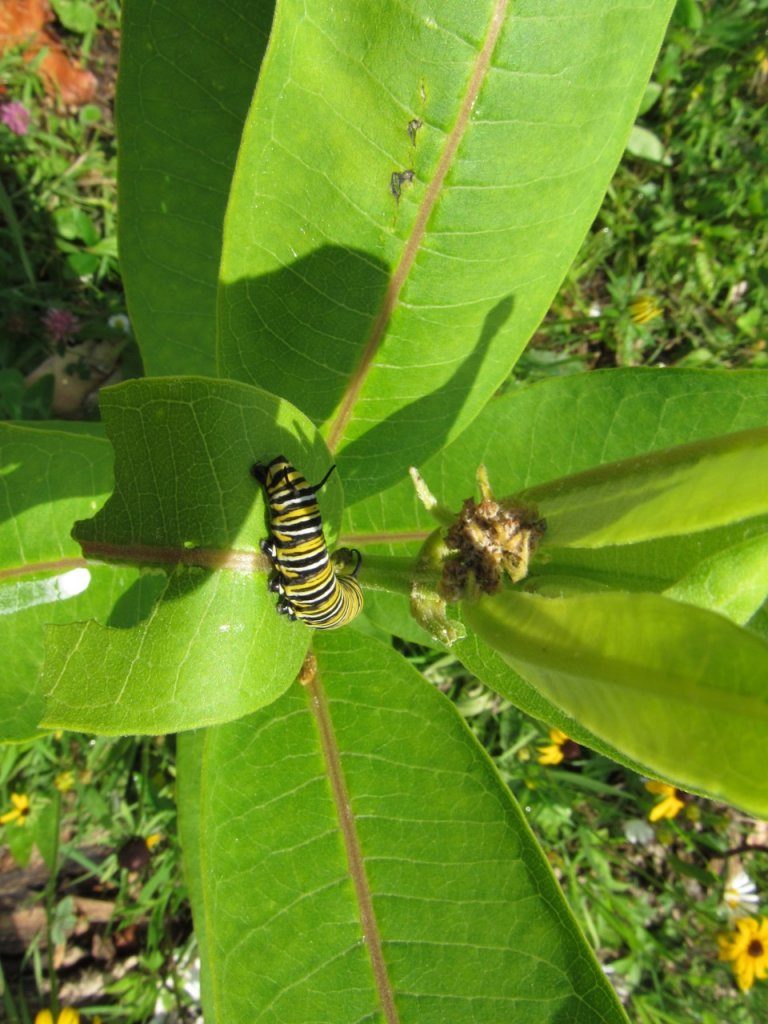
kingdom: Animalia
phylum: Arthropoda
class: Insecta
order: Lepidoptera
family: Nymphalidae
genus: Danaus
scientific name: Danaus plexippus
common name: Monarch
